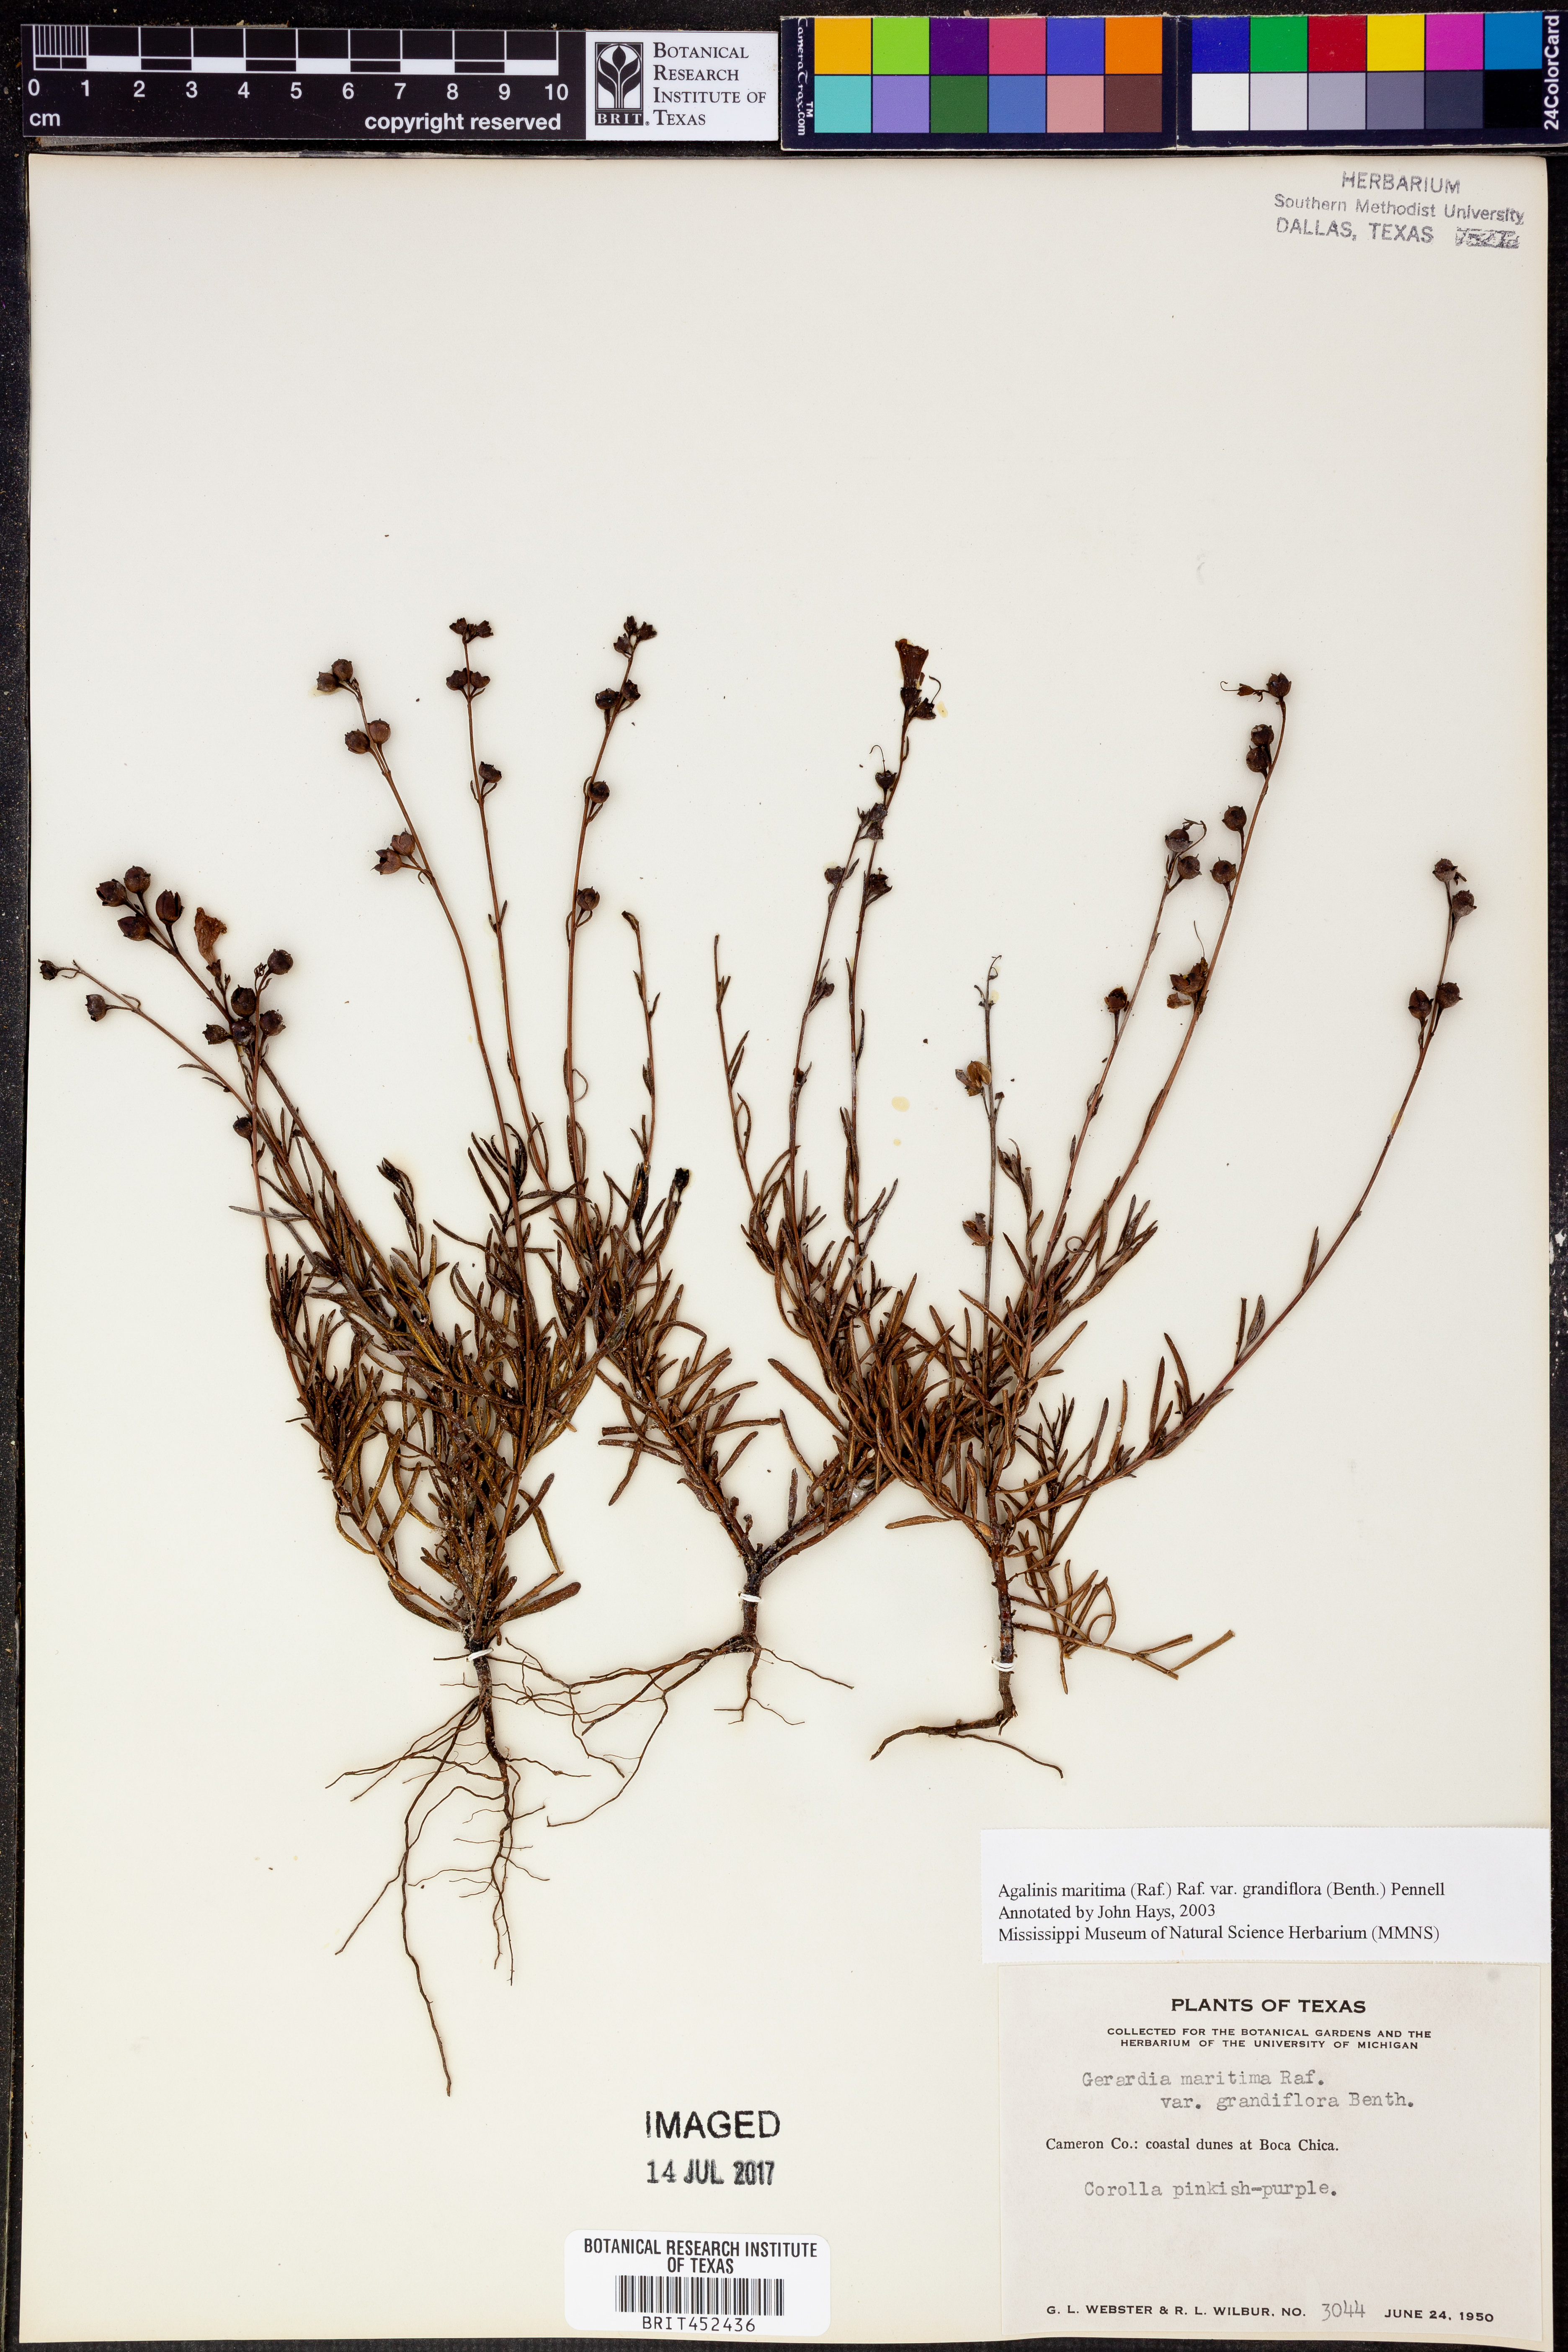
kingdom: Plantae
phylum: Tracheophyta
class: Magnoliopsida
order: Lamiales
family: Orobanchaceae
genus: Agalinis
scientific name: Agalinis harperi
